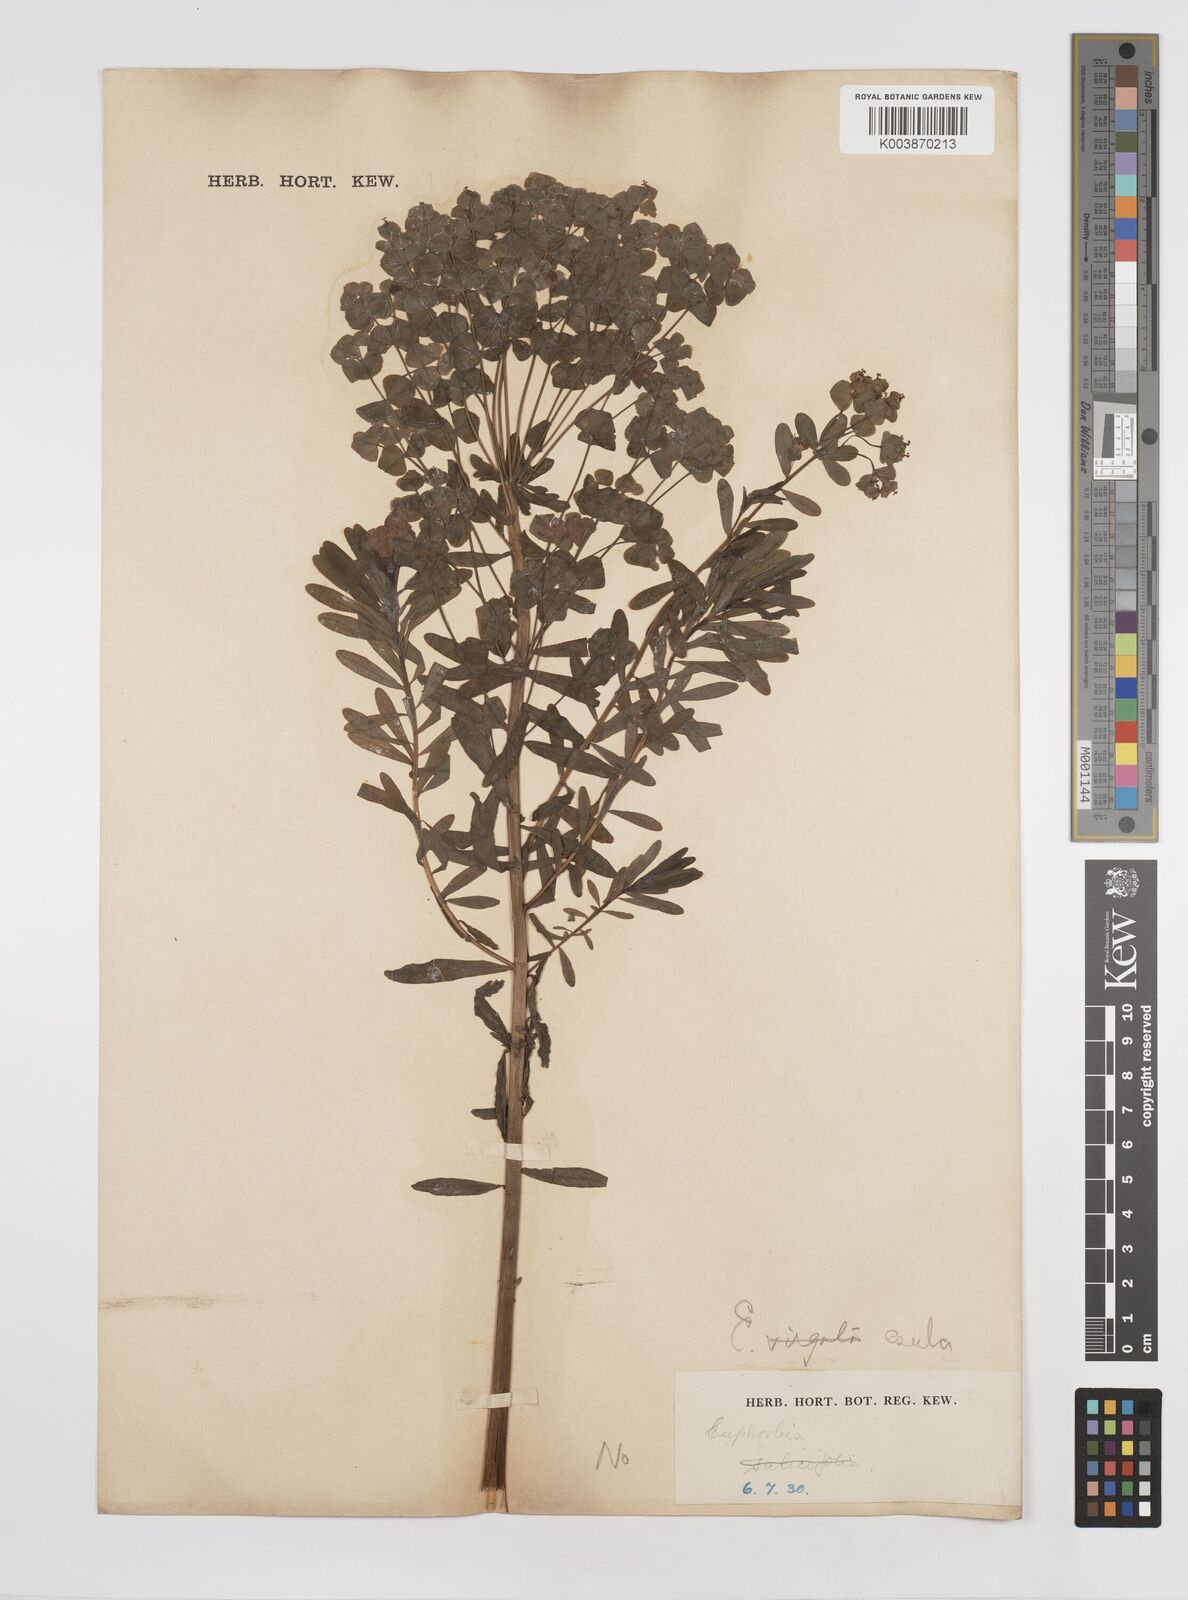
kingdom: Plantae
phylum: Tracheophyta
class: Magnoliopsida
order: Malpighiales
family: Euphorbiaceae
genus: Euphorbia
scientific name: Euphorbia esula
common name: Leafy spurge
